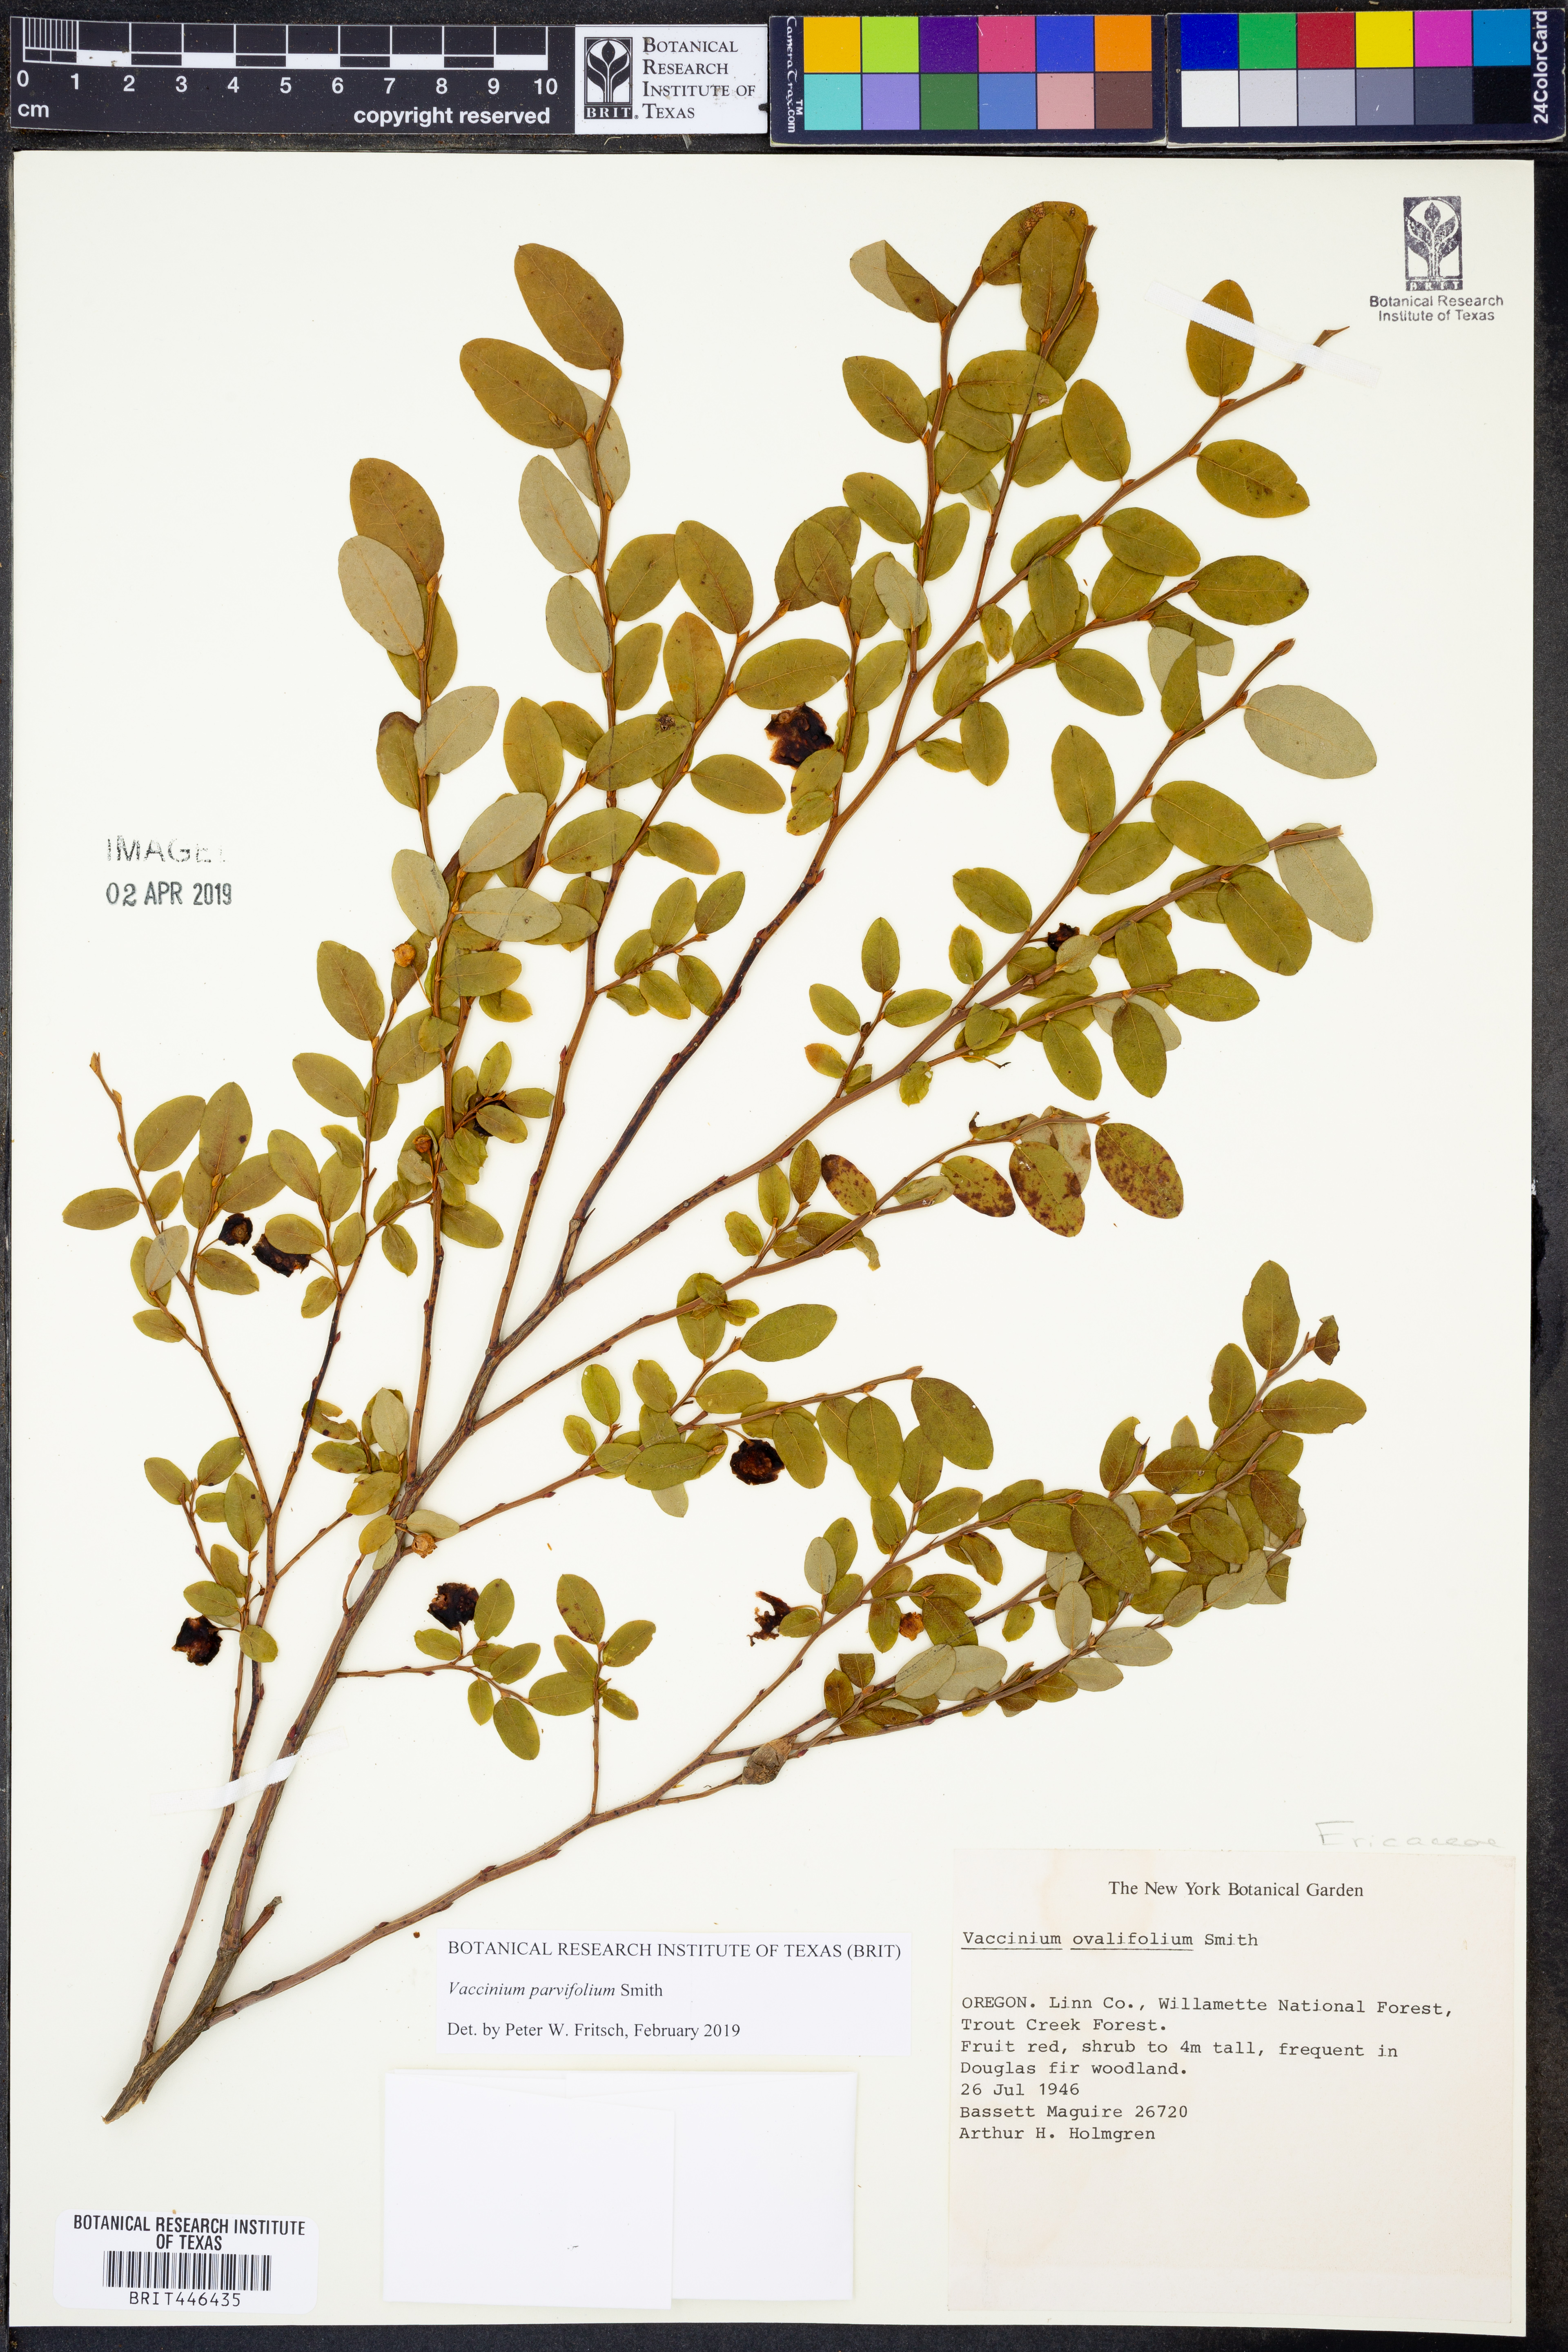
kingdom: Plantae
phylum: Tracheophyta
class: Magnoliopsida
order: Ericales
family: Ericaceae
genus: Vaccinium
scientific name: Vaccinium parvifolium
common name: Red-huckleberry
